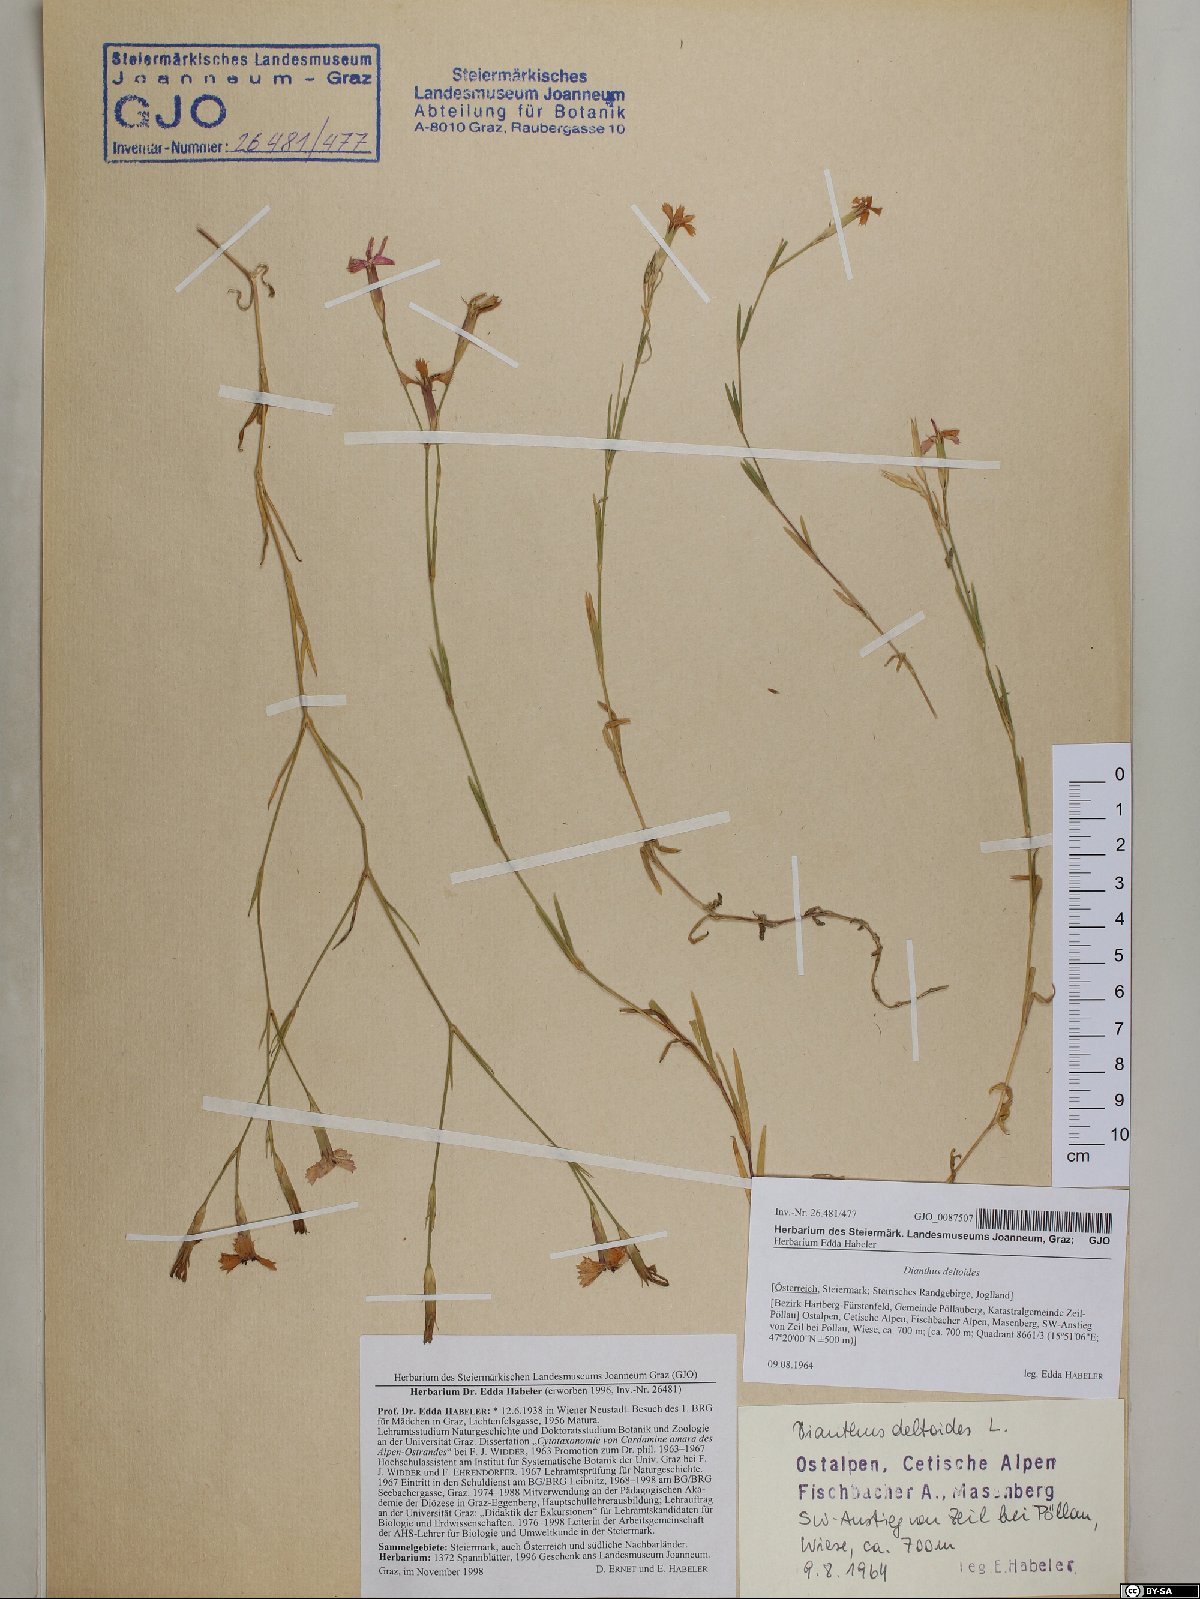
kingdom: Plantae
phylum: Tracheophyta
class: Magnoliopsida
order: Caryophyllales
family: Caryophyllaceae
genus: Dianthus
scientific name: Dianthus deltoides
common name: Maiden pink
